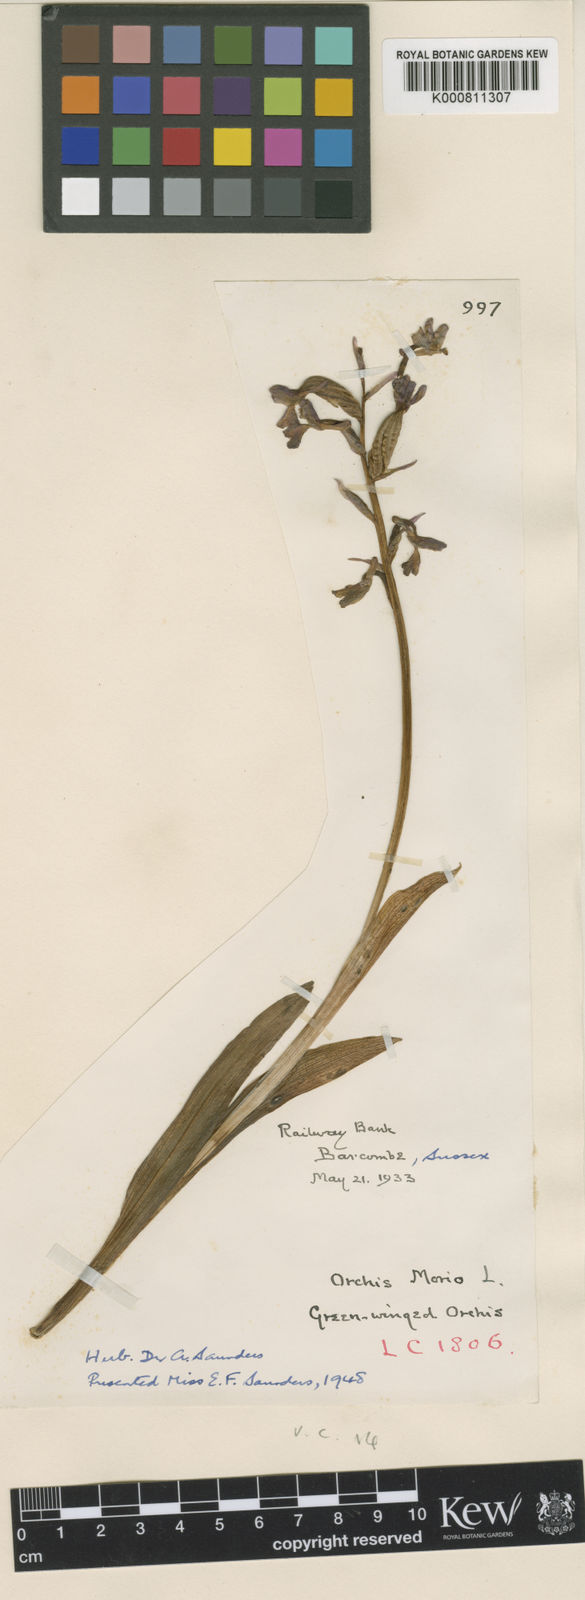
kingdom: Plantae
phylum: Tracheophyta
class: Liliopsida
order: Asparagales
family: Orchidaceae
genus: Anacamptis
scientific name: Anacamptis morio
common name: Green-winged orchid
